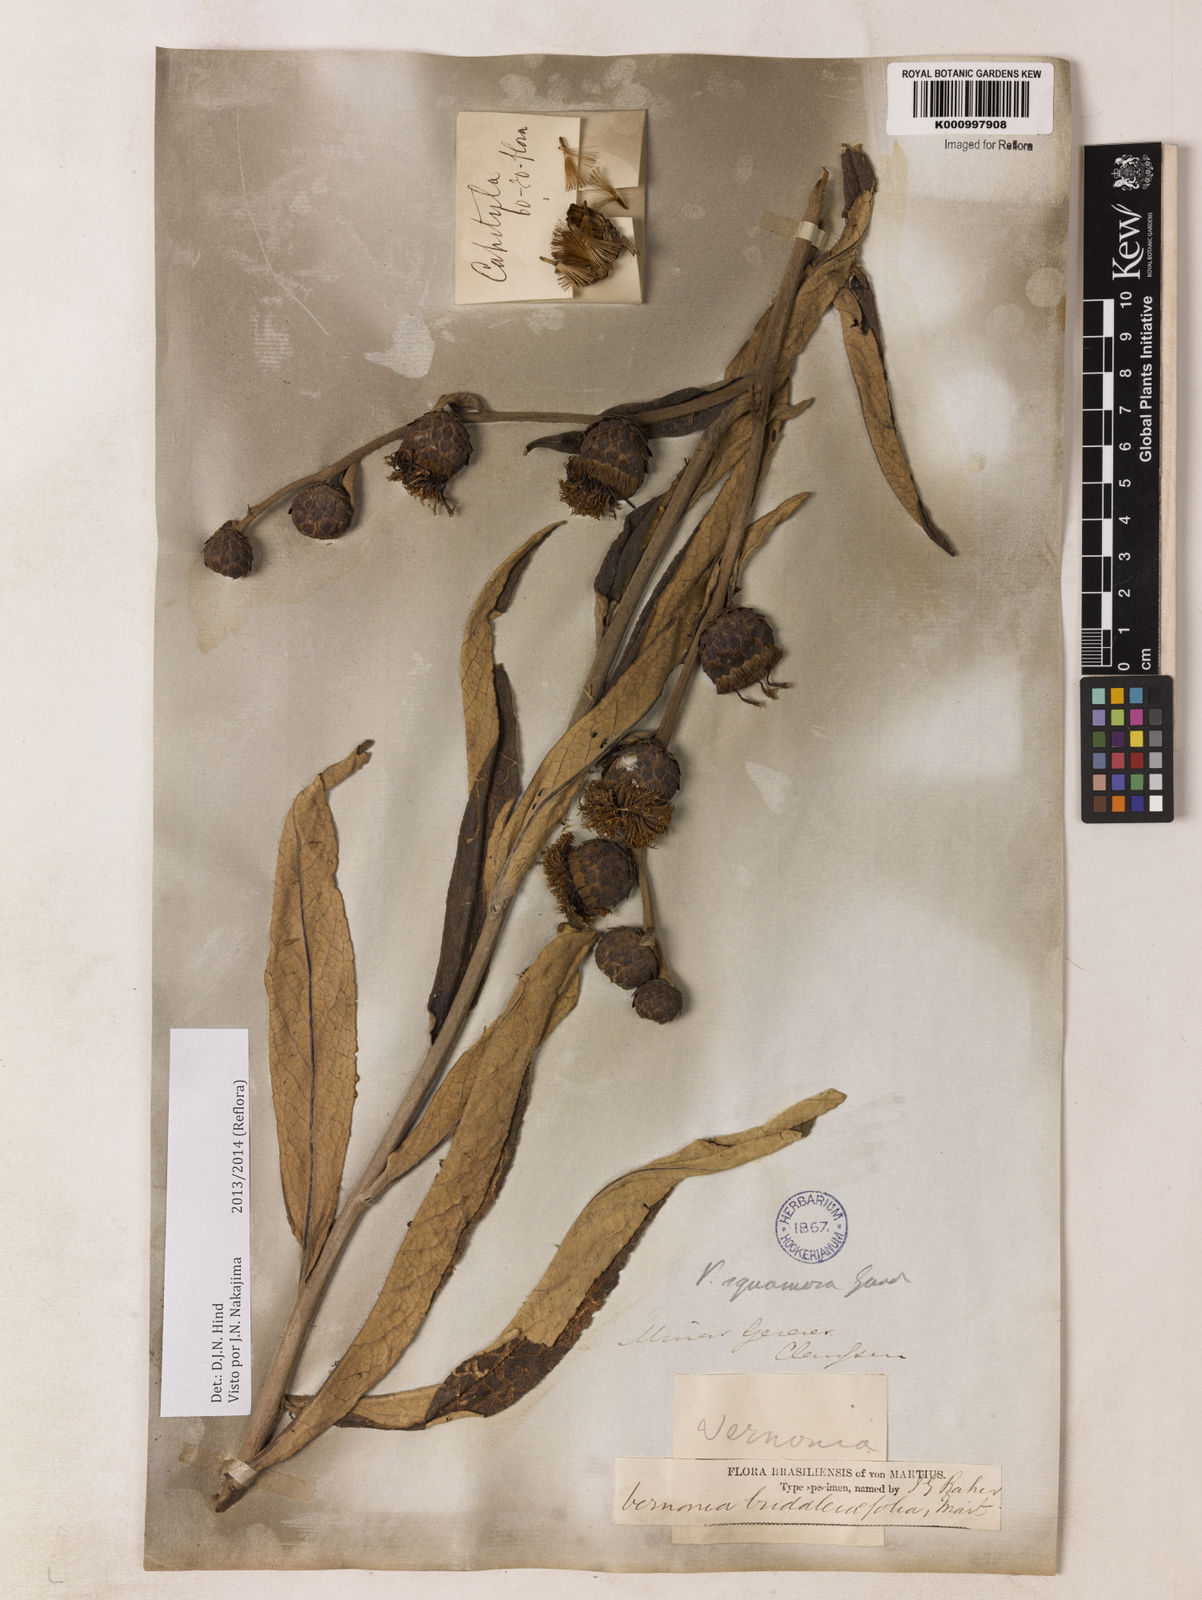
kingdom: Plantae
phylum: Tracheophyta
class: Magnoliopsida
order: Asterales
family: Asteraceae
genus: Lessingianthus
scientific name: Lessingianthus buddlejifolius
